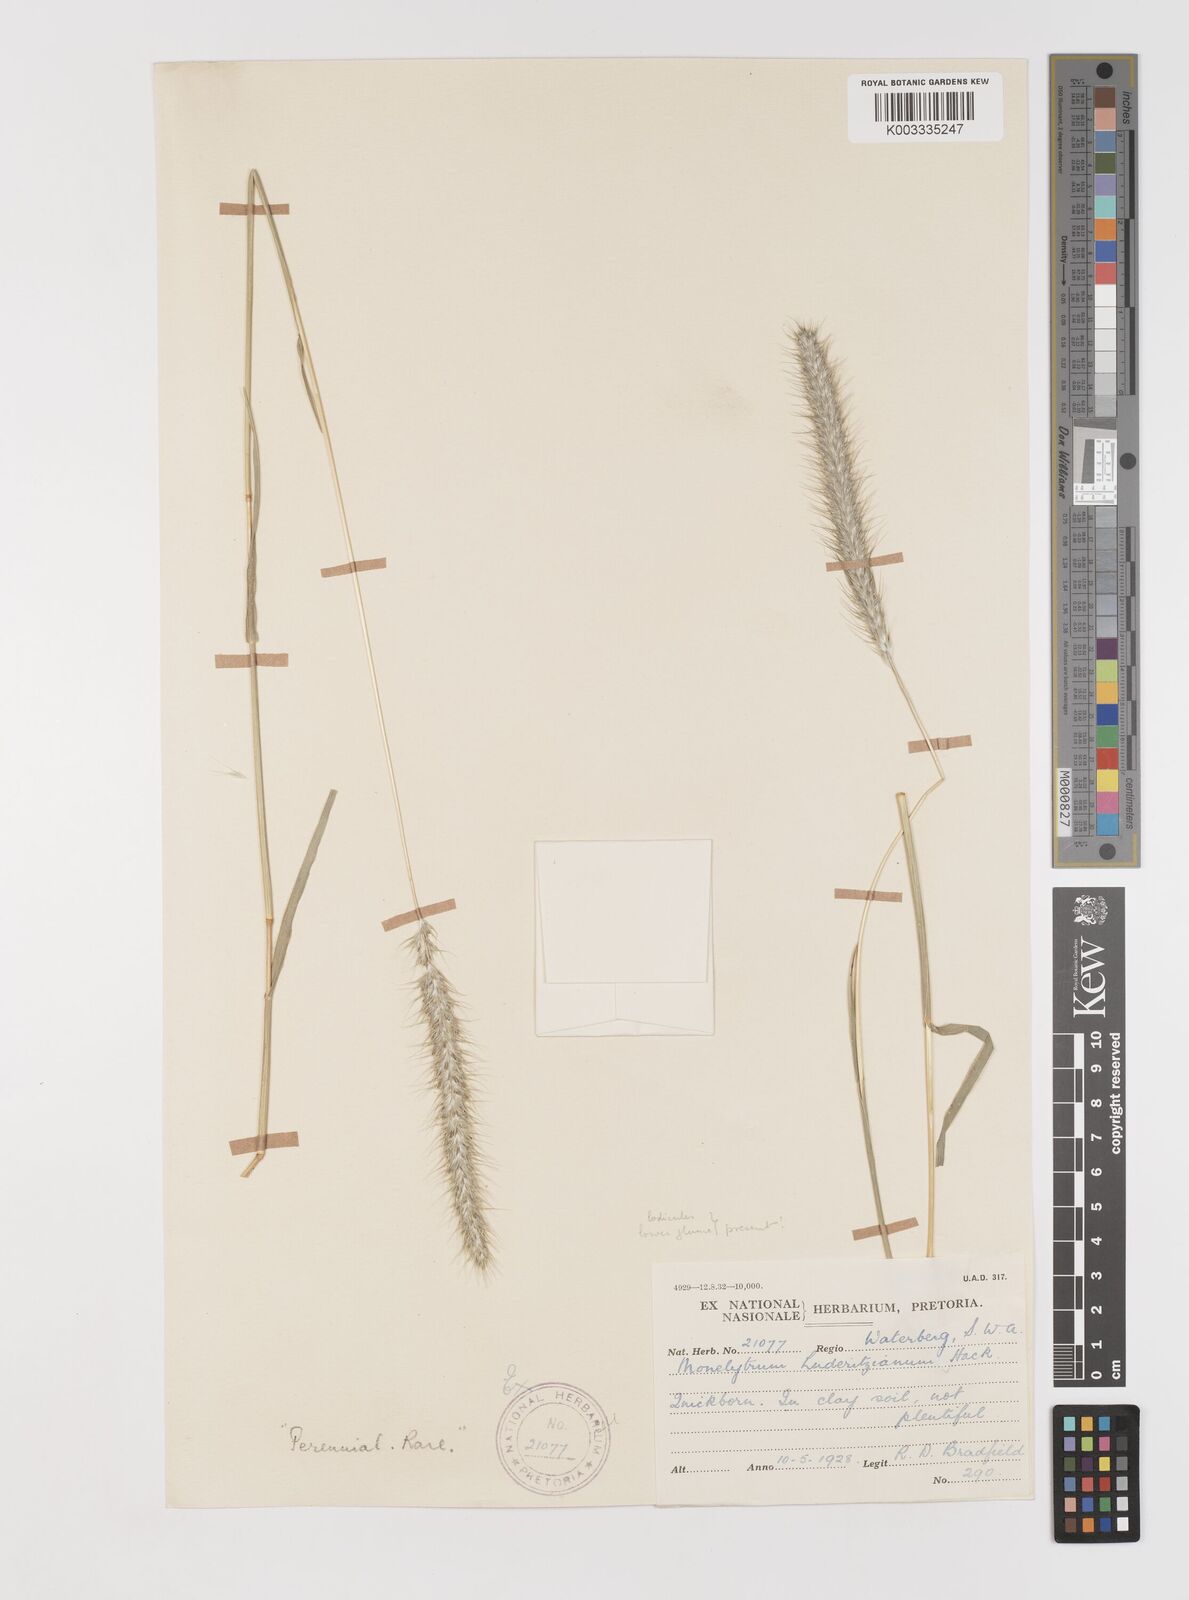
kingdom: Plantae
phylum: Tracheophyta
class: Liliopsida
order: Poales
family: Poaceae
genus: Monelytrum
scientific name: Monelytrum luederitzianum
